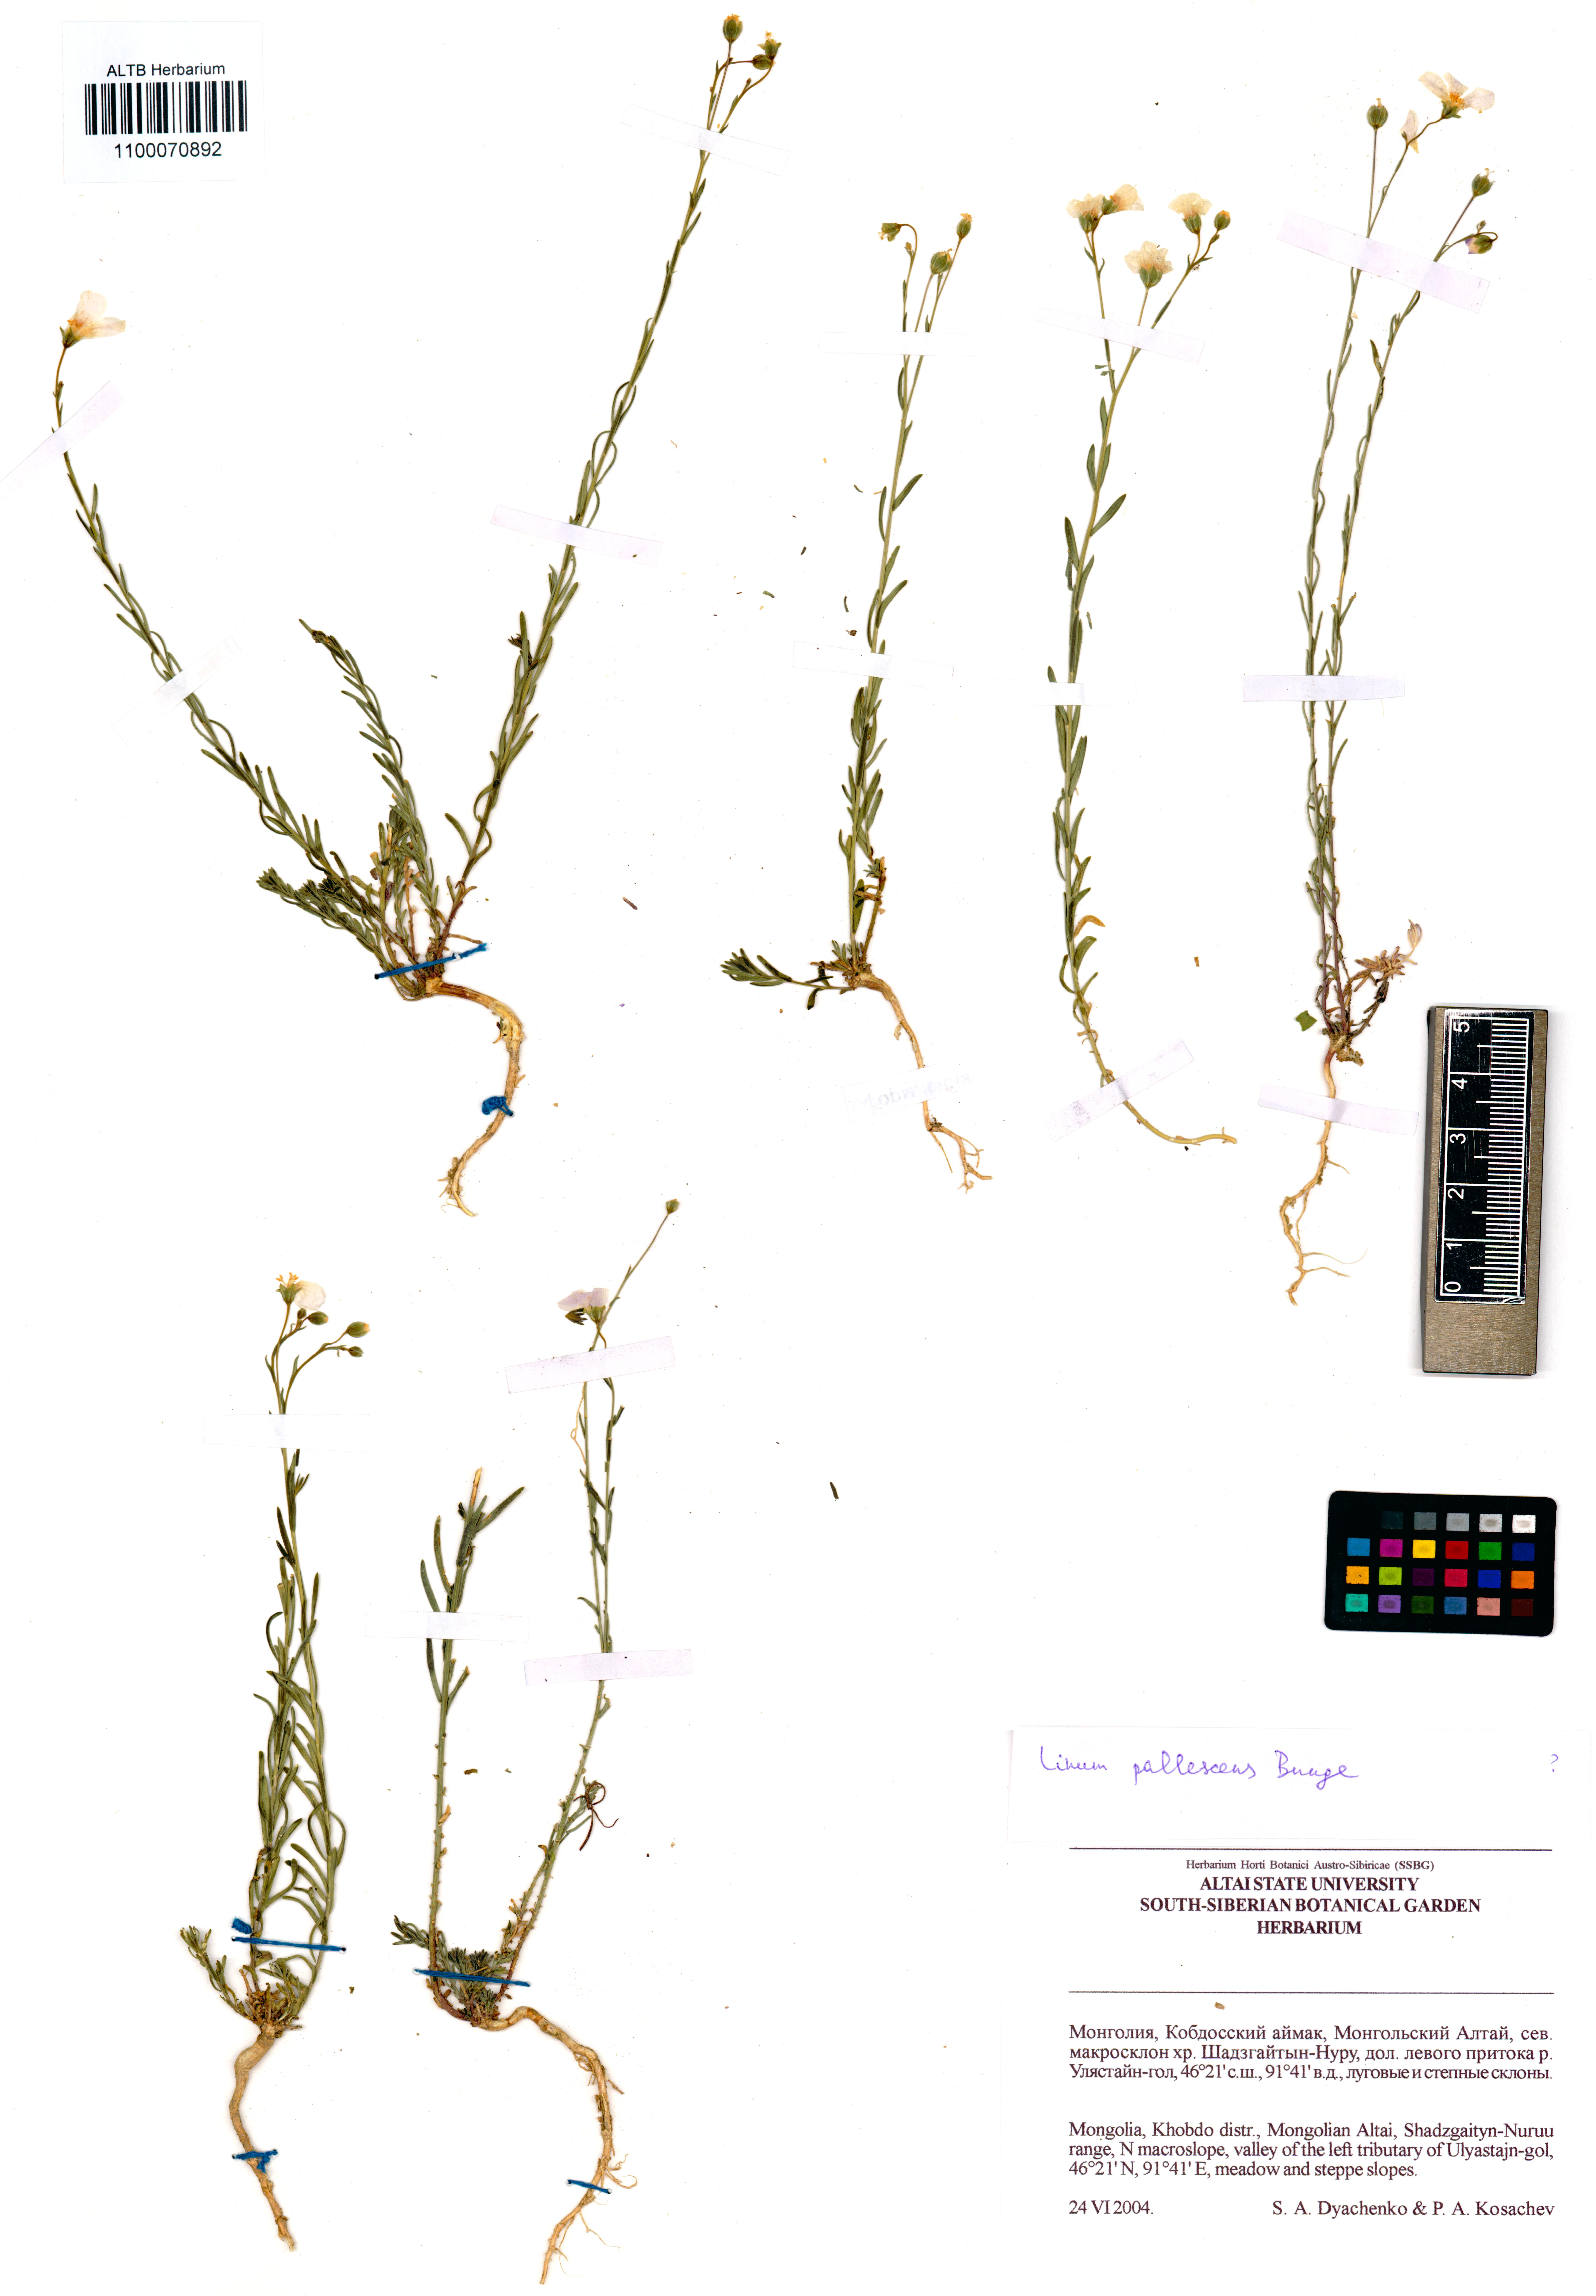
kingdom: Plantae
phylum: Tracheophyta
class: Magnoliopsida
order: Malpighiales
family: Linaceae
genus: Linum
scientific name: Linum pallescens
